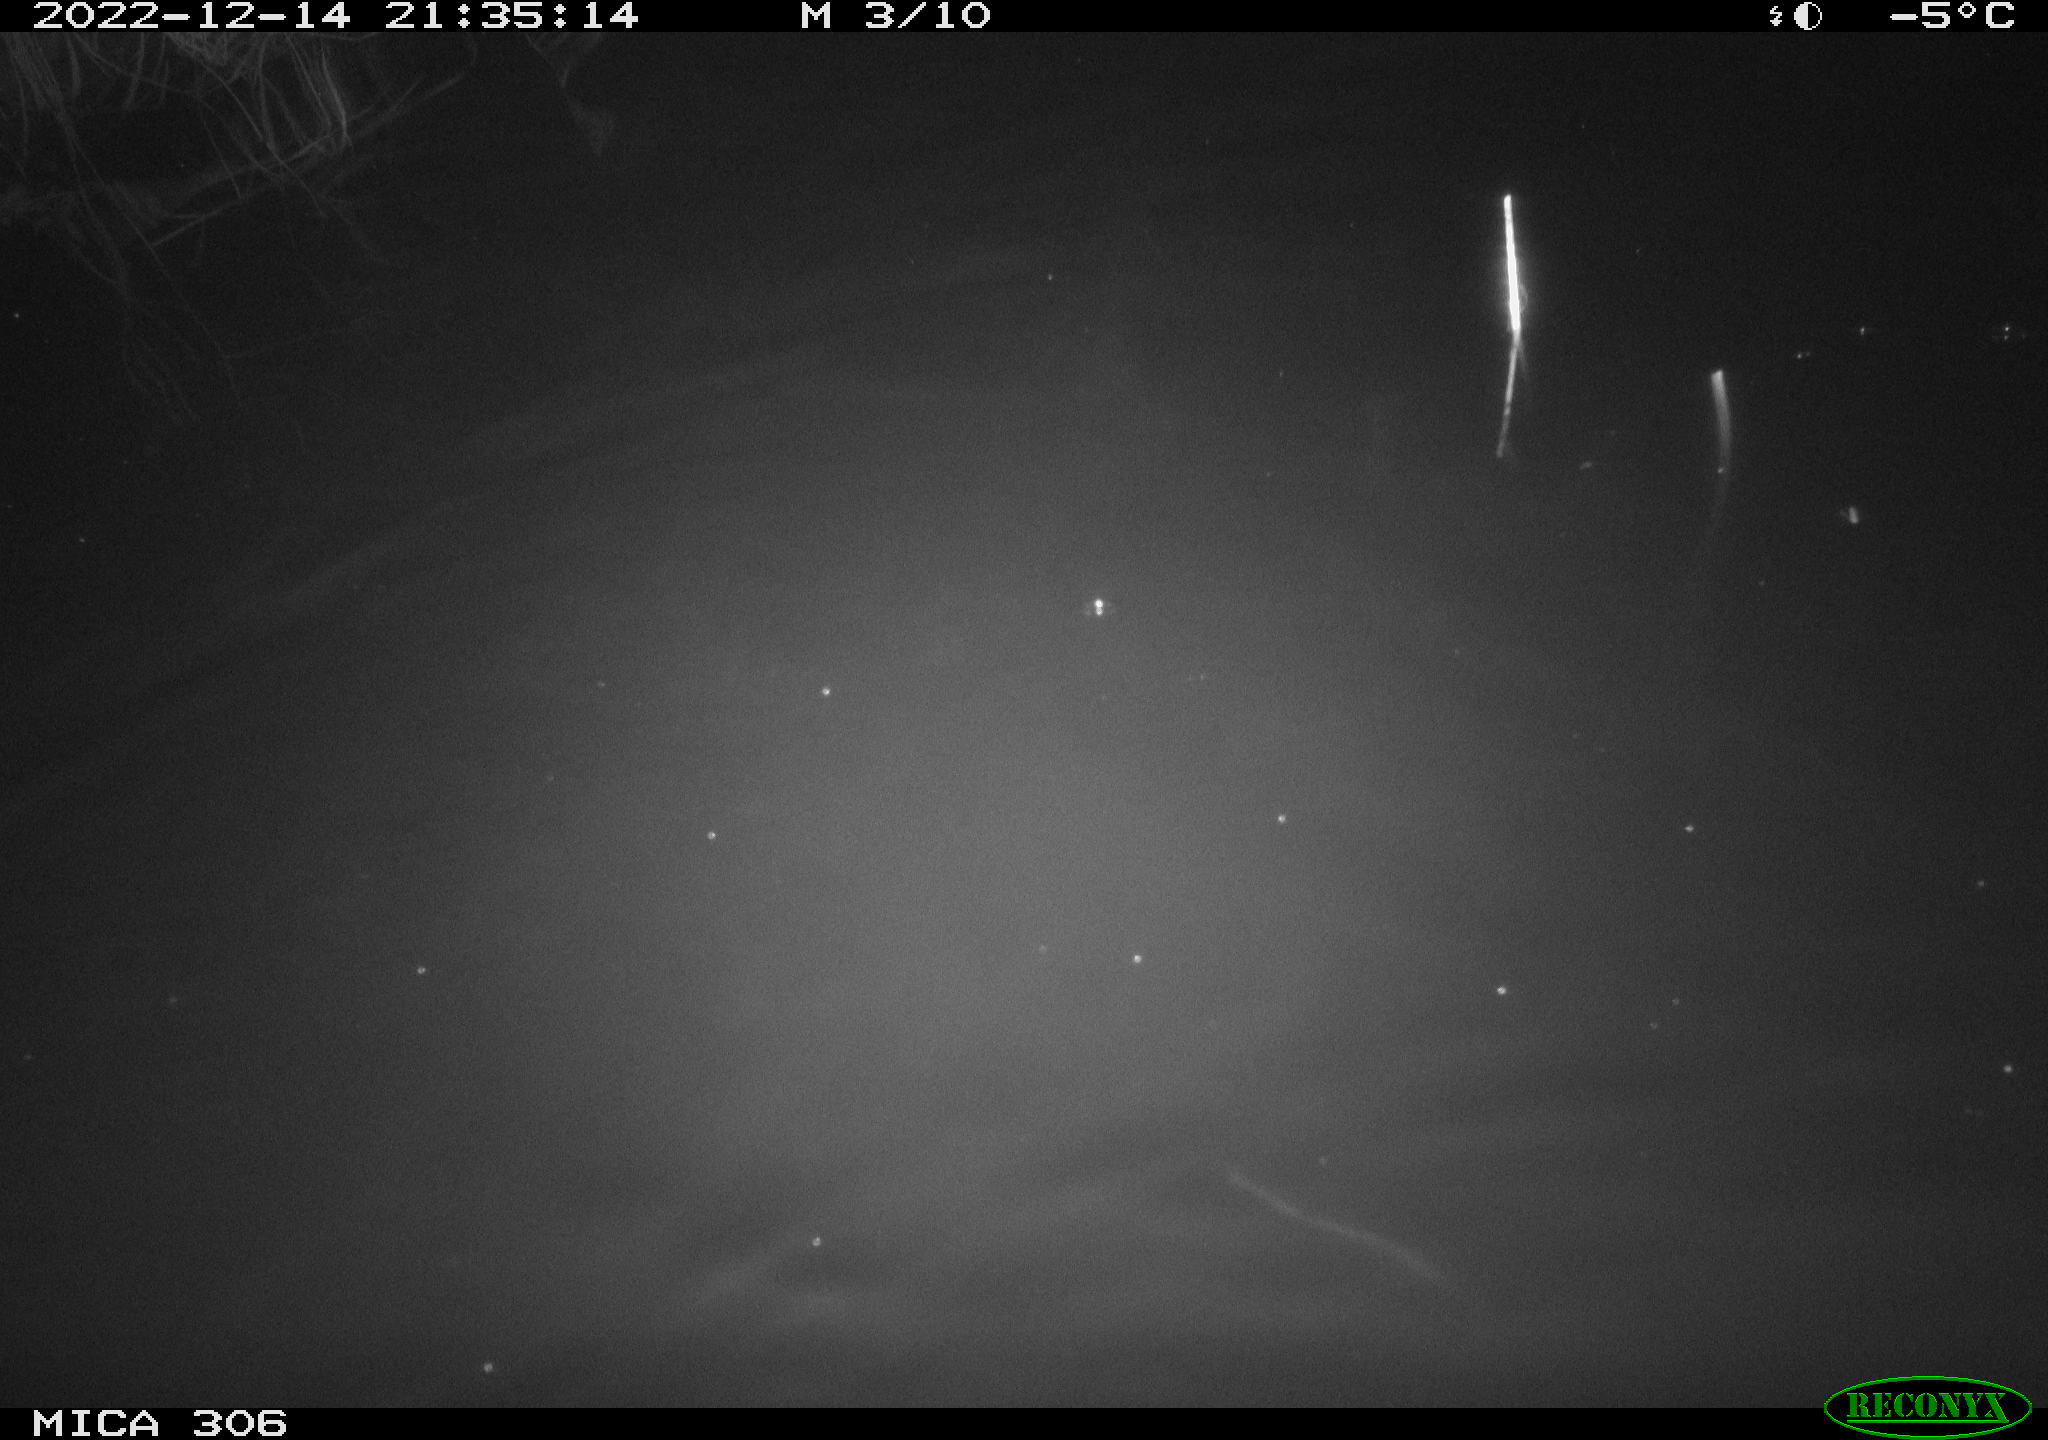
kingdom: Animalia
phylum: Chordata
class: Mammalia
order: Rodentia
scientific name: Rodentia
